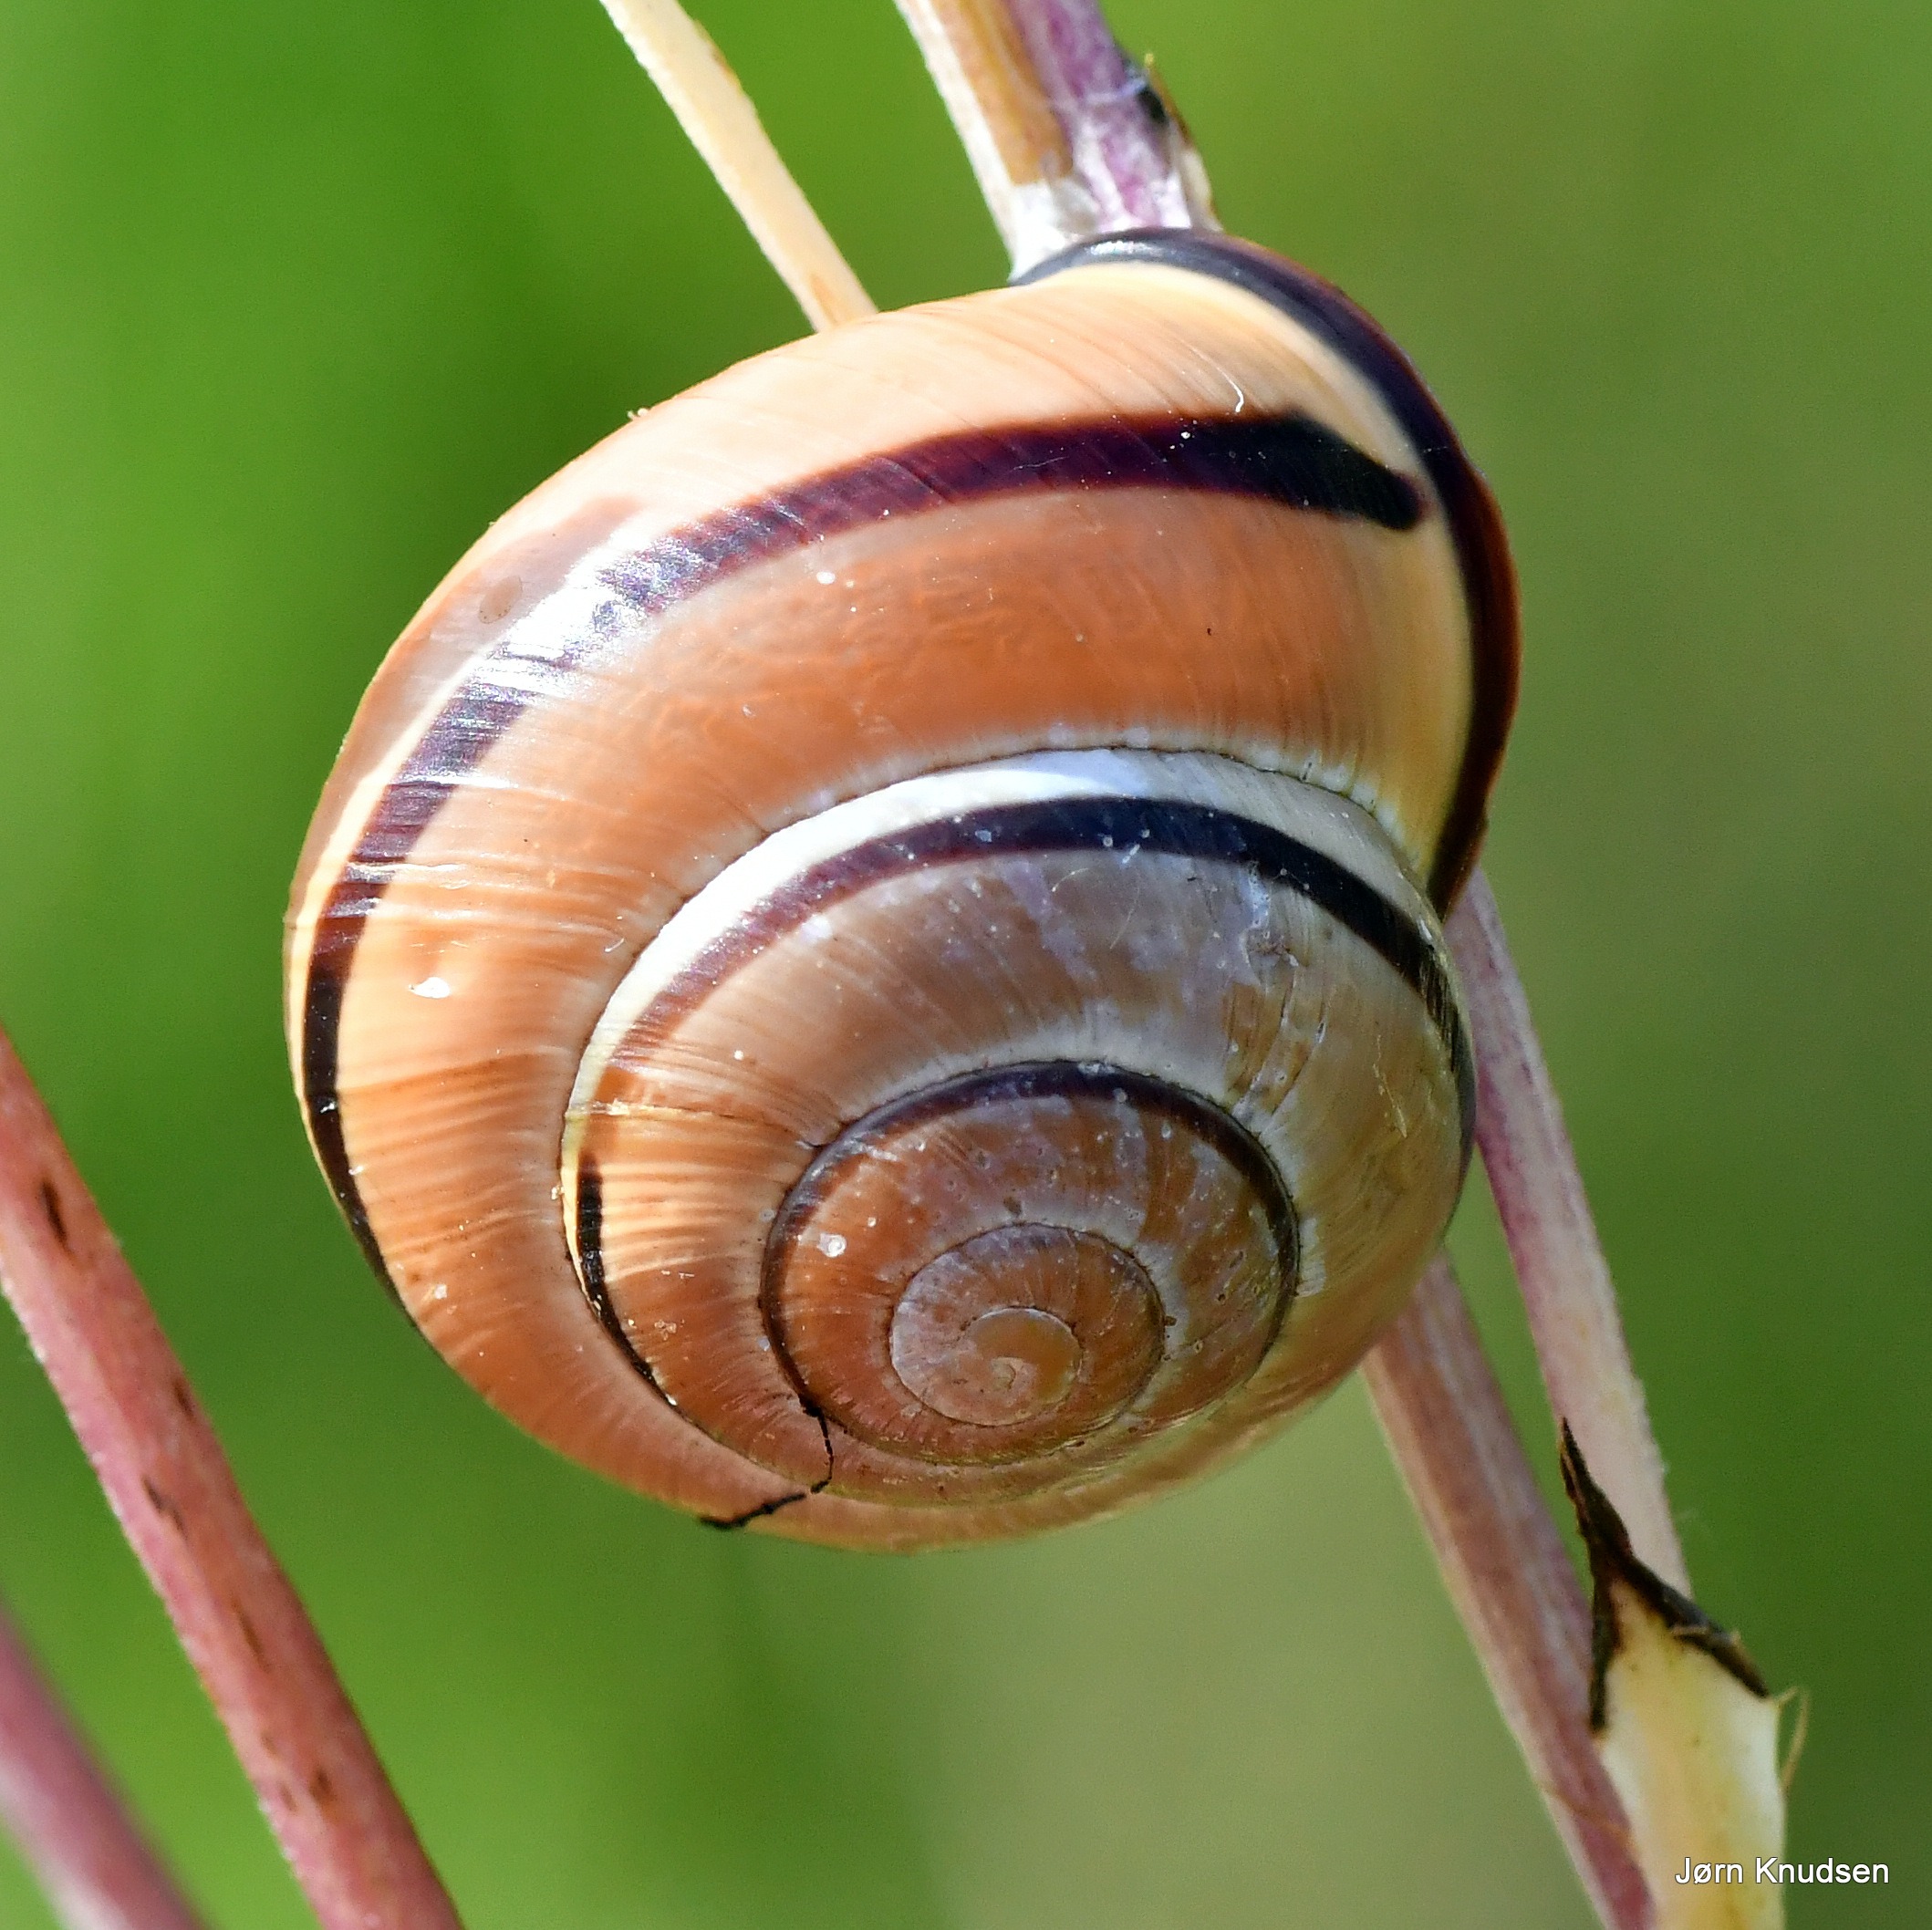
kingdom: Animalia
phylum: Mollusca
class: Gastropoda
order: Stylommatophora
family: Helicidae
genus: Cepaea
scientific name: Cepaea nemoralis
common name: Lundsnegl
